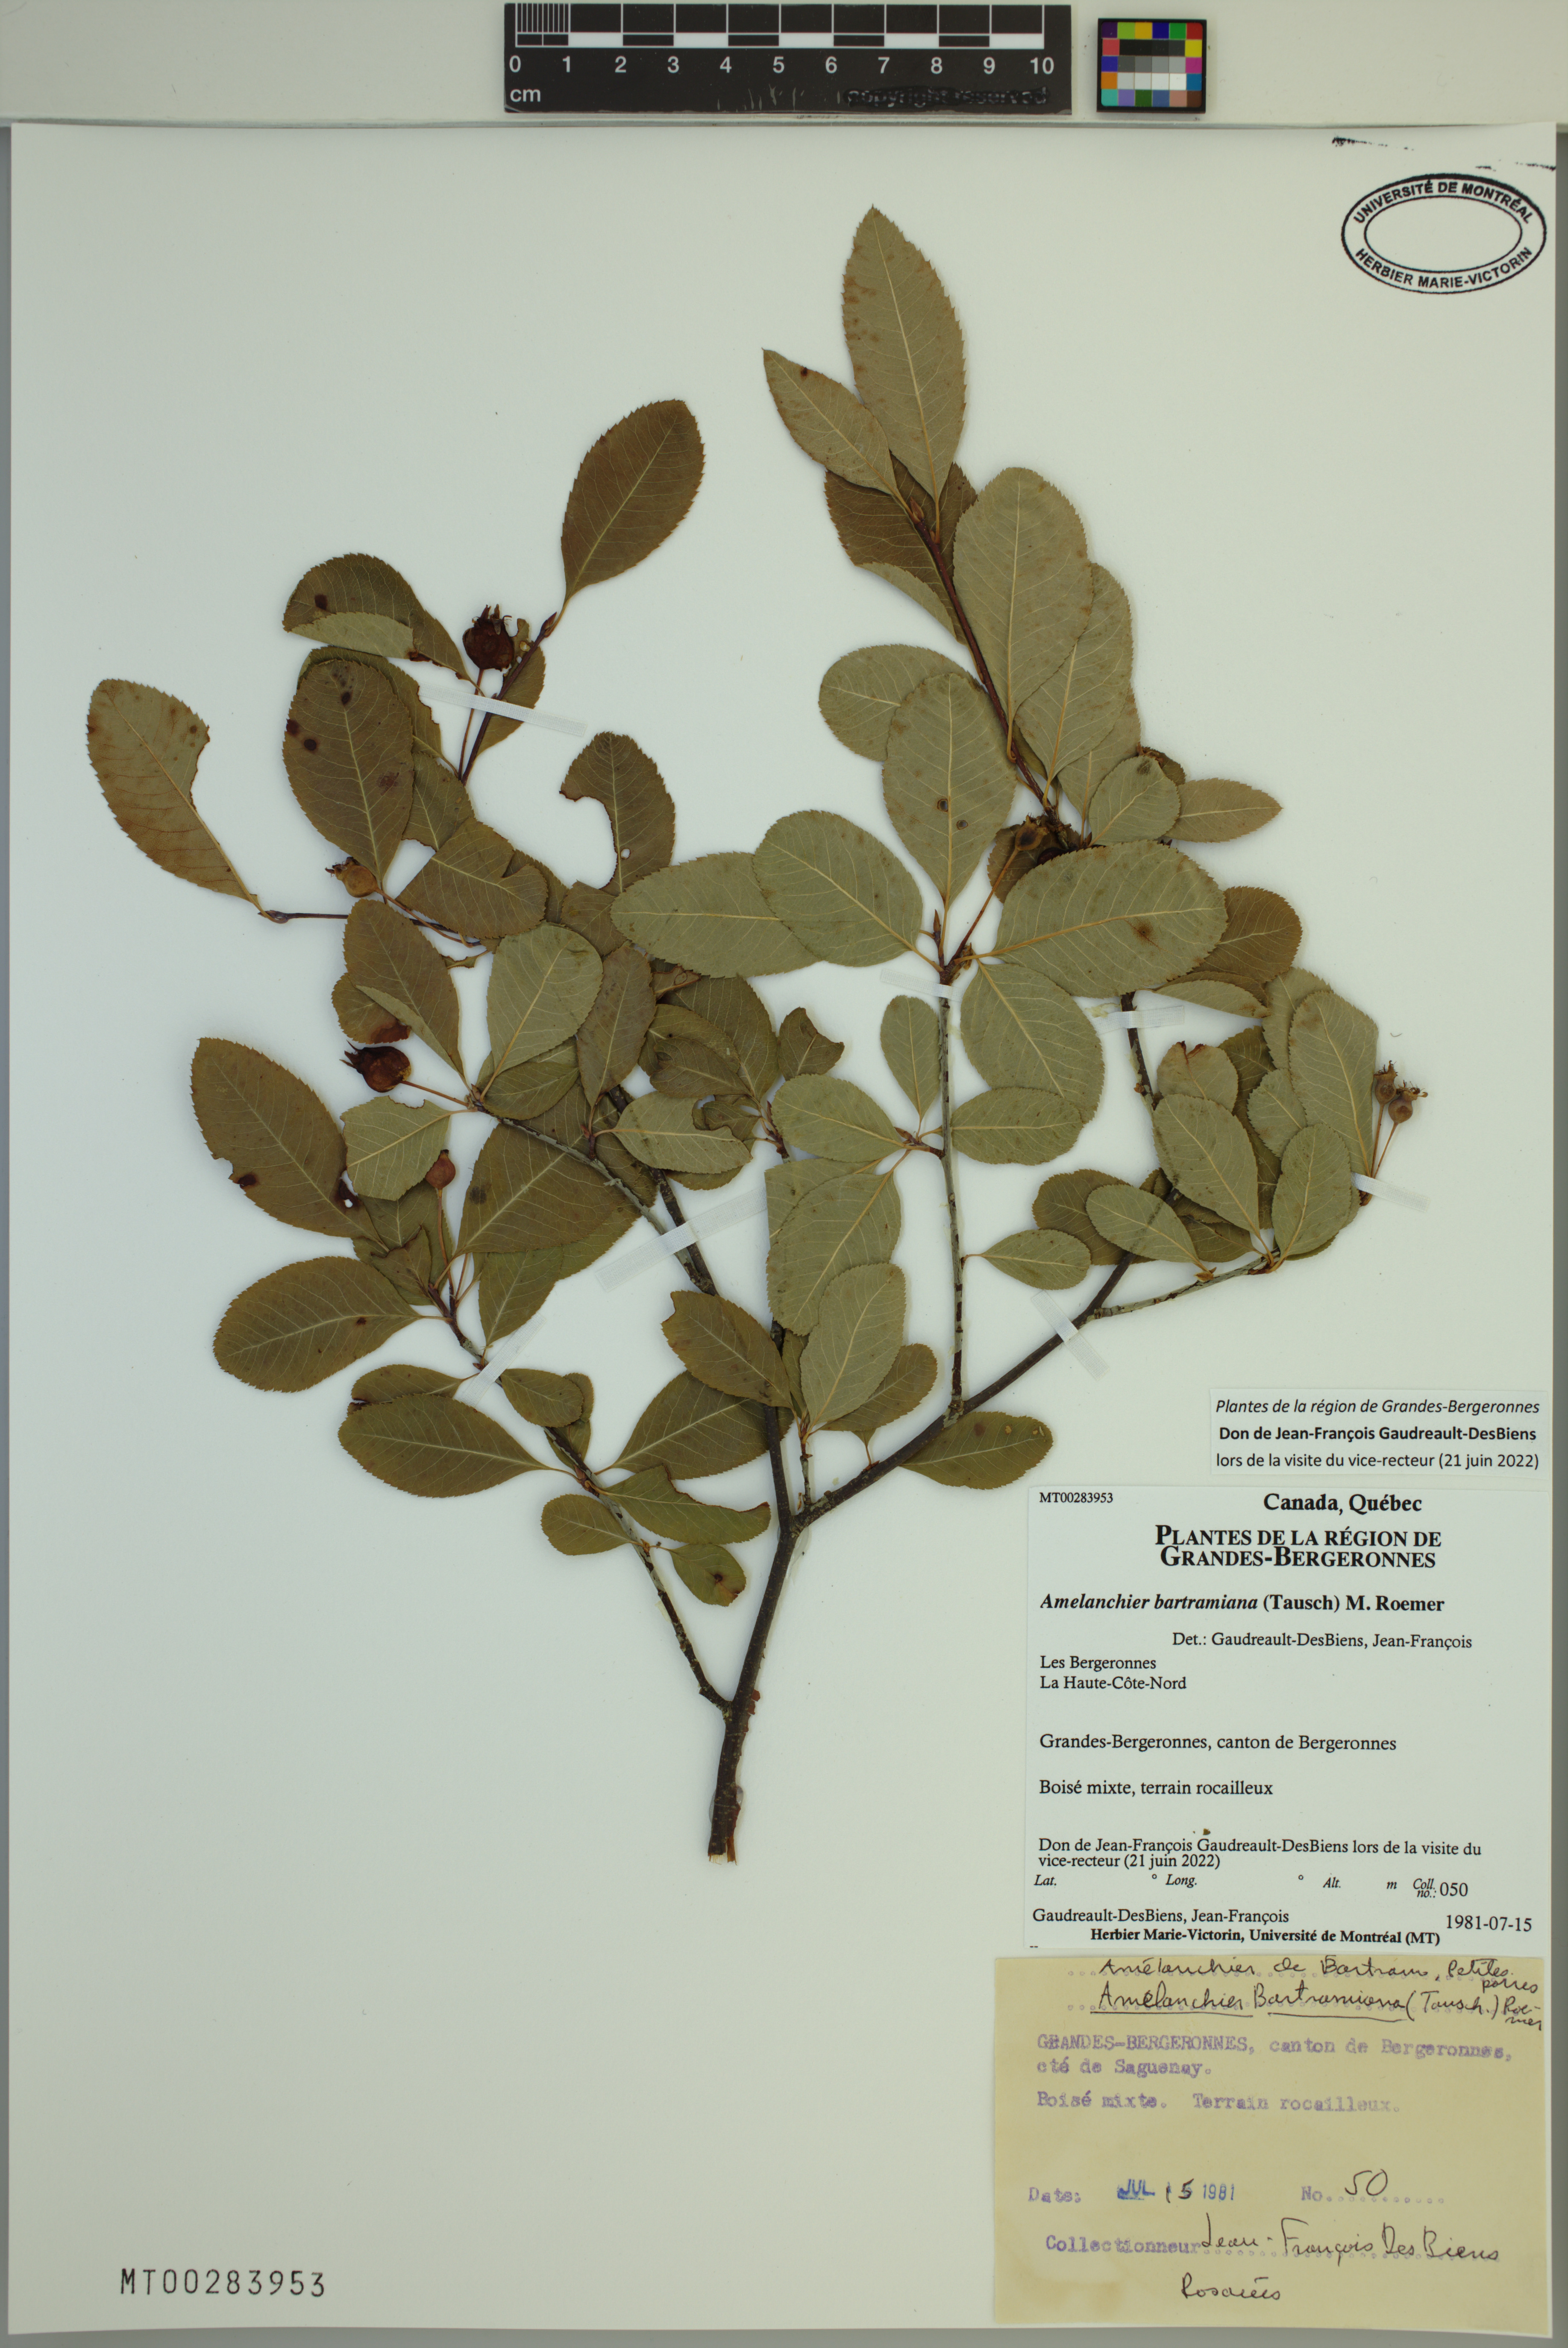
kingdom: Plantae
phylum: Tracheophyta
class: Magnoliopsida
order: Rosales
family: Rosaceae
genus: Amelanchier
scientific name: Amelanchier bartramiana
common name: Mountain serviceberry
